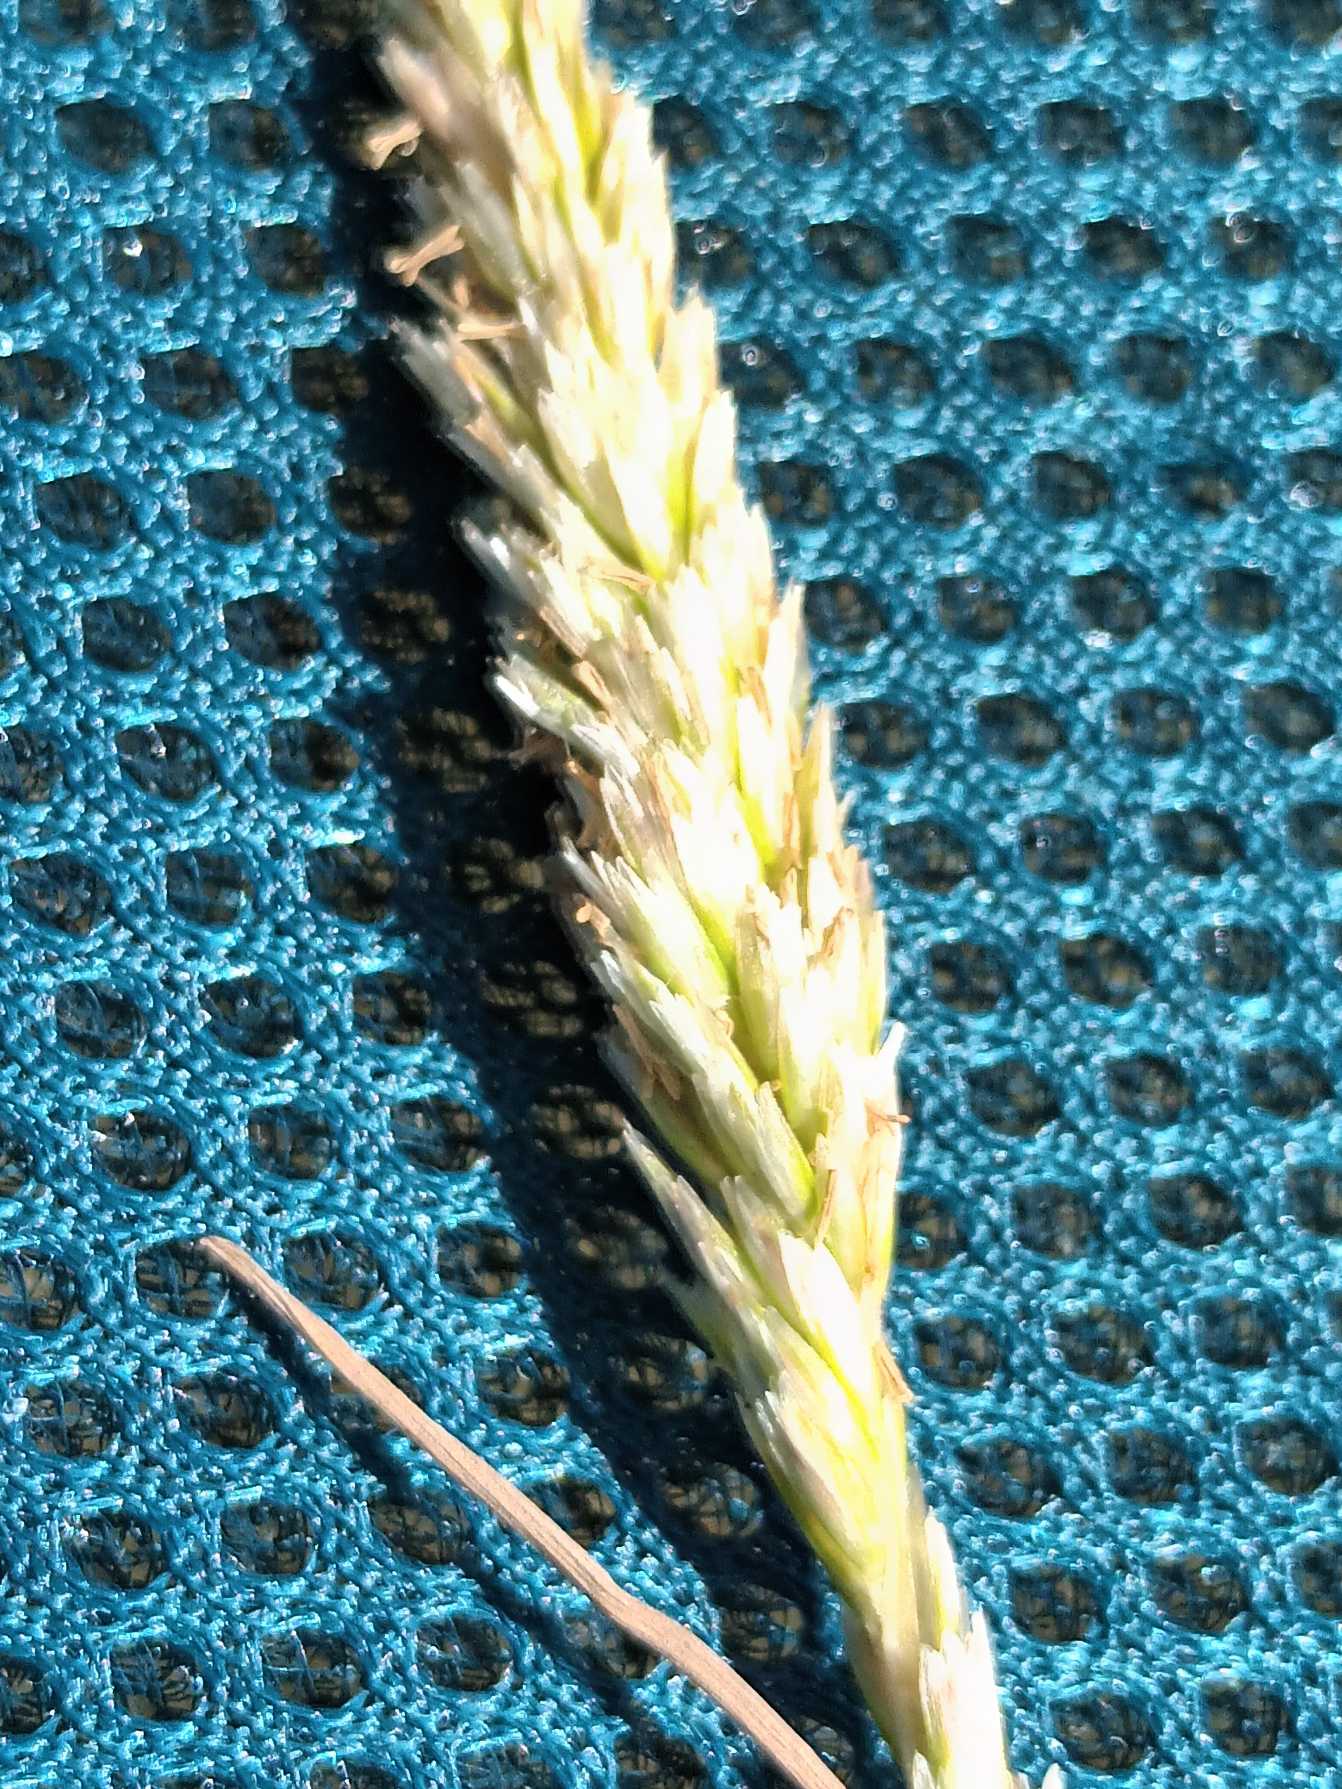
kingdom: Plantae
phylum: Tracheophyta
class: Liliopsida
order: Poales
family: Poaceae
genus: Koeleria
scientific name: Koeleria glauca
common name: Klit-kambunke
